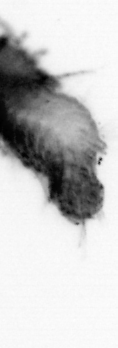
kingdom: Animalia
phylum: Annelida
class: Polychaeta
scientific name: Polychaeta
